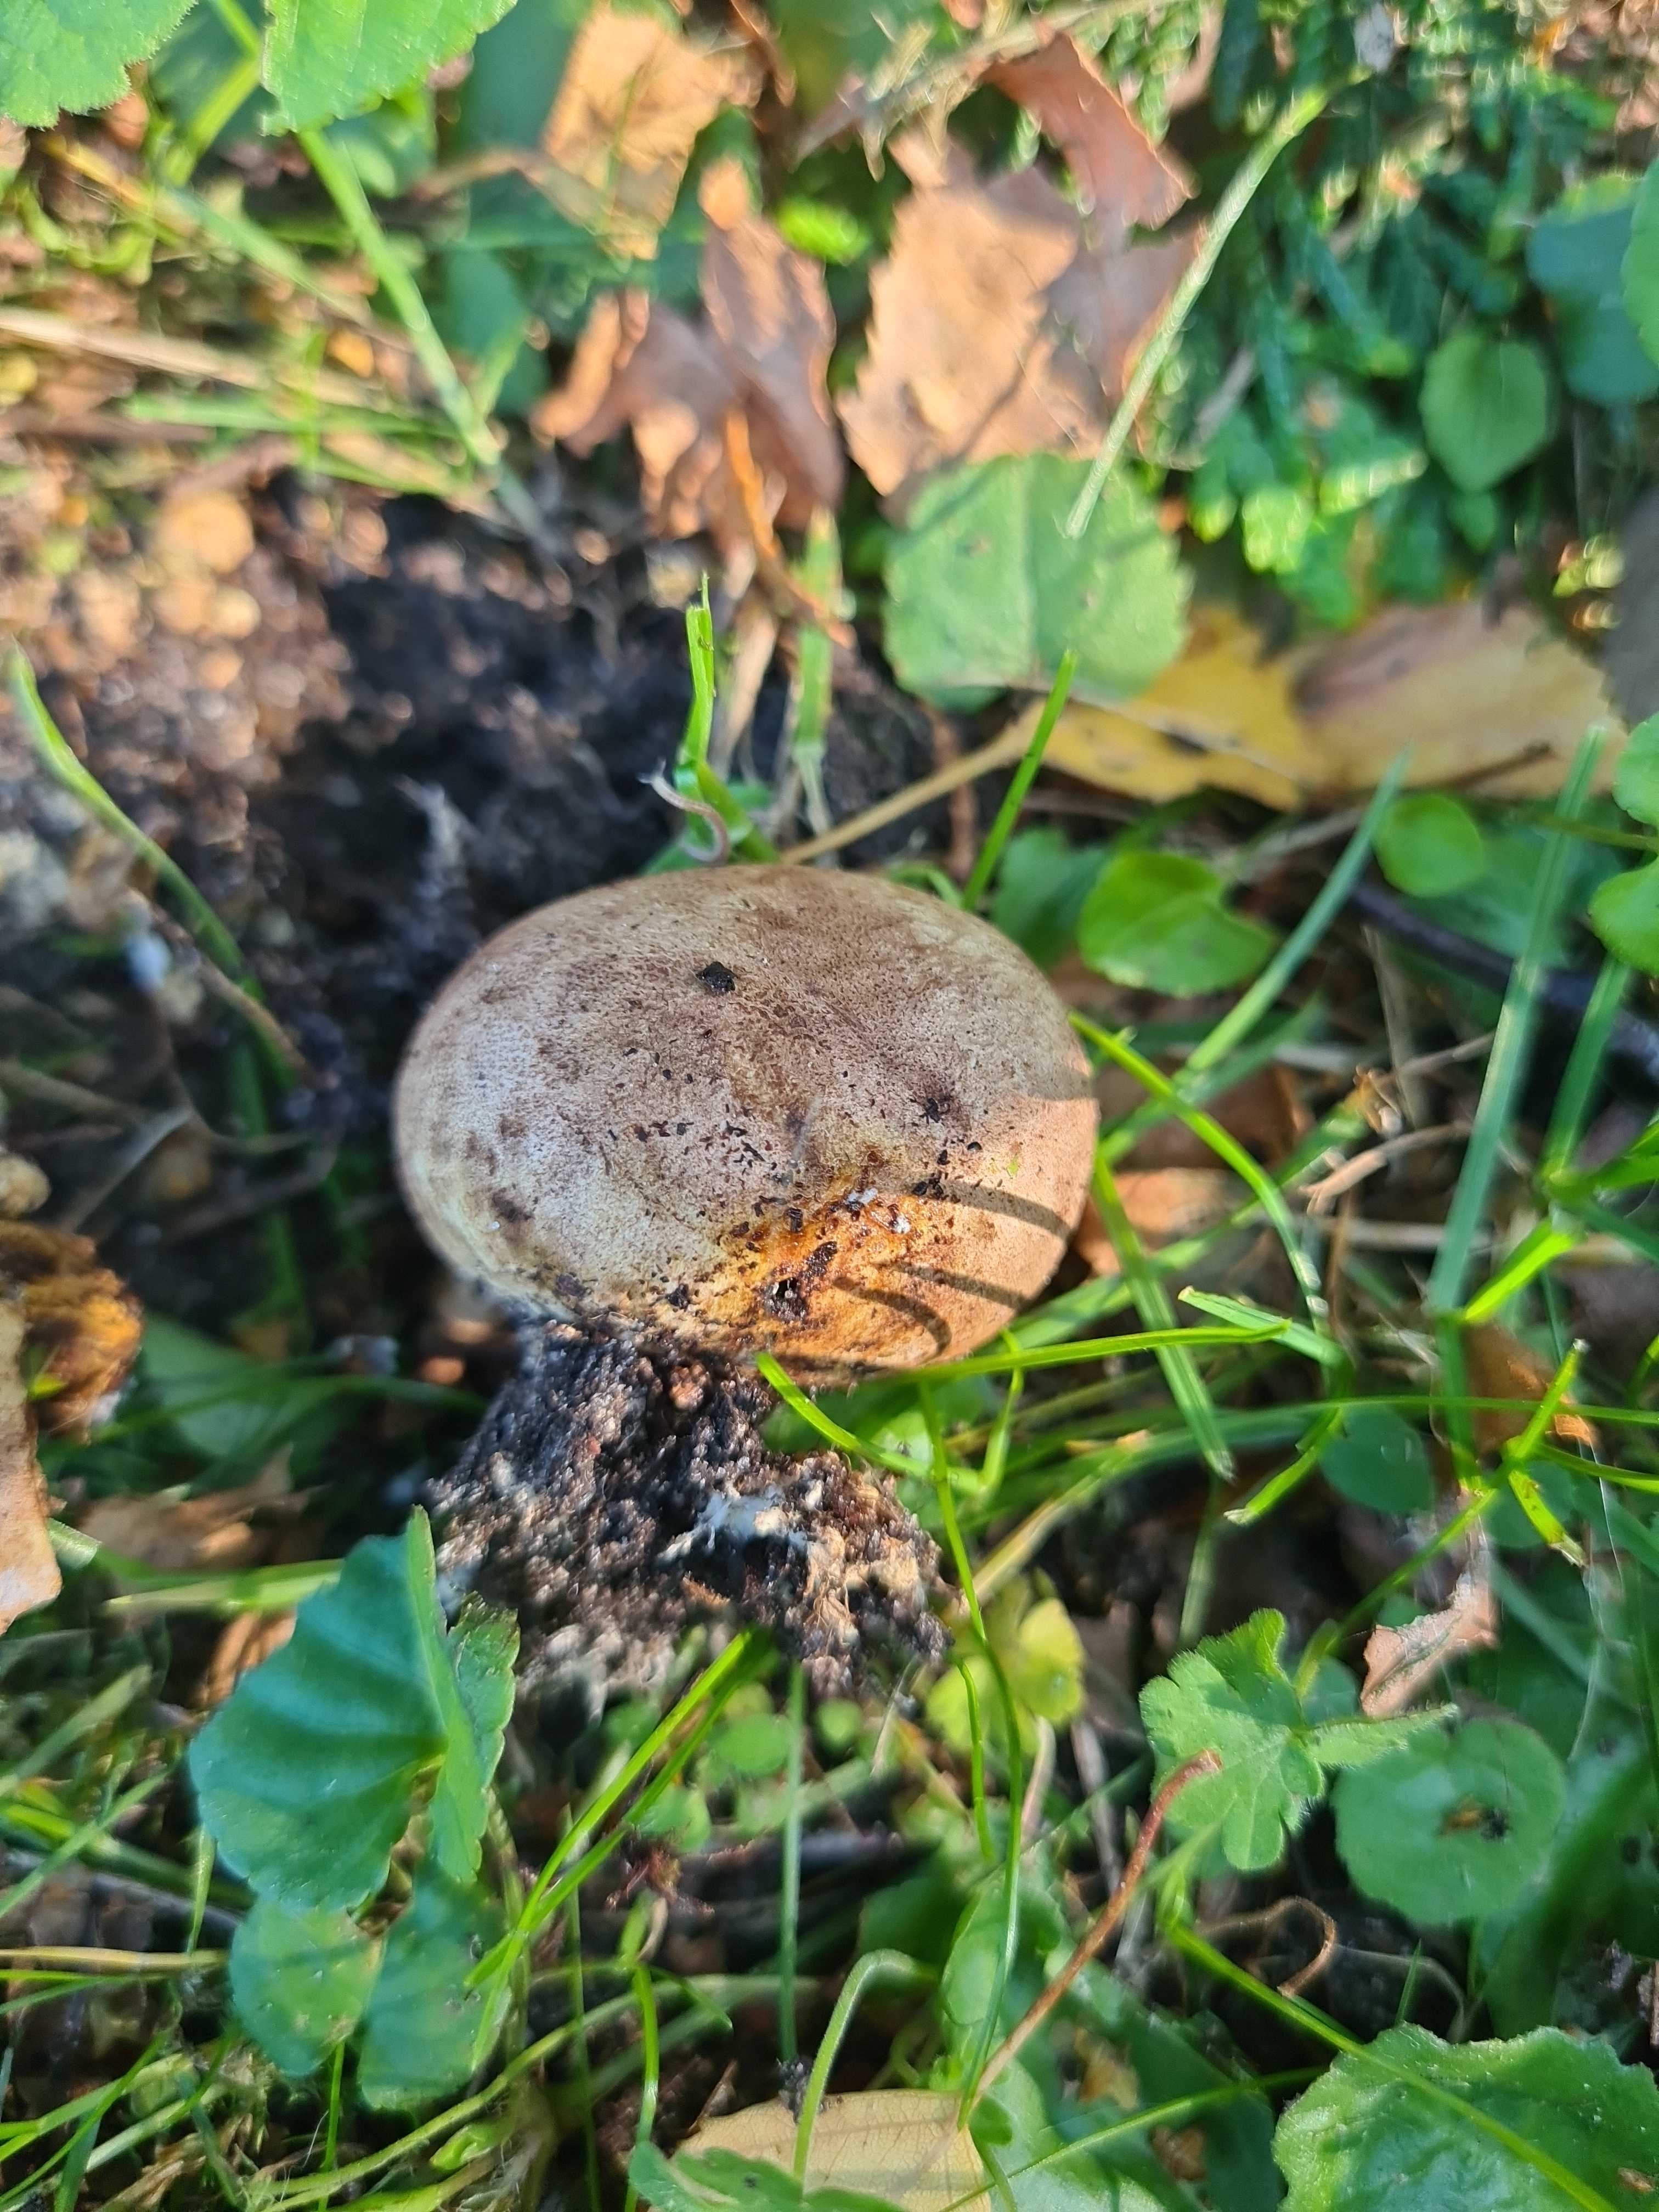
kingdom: Fungi
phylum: Basidiomycota
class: Agaricomycetes
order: Boletales
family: Sclerodermataceae
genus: Scleroderma
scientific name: Scleroderma bovista
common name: bovist-bruskbold
